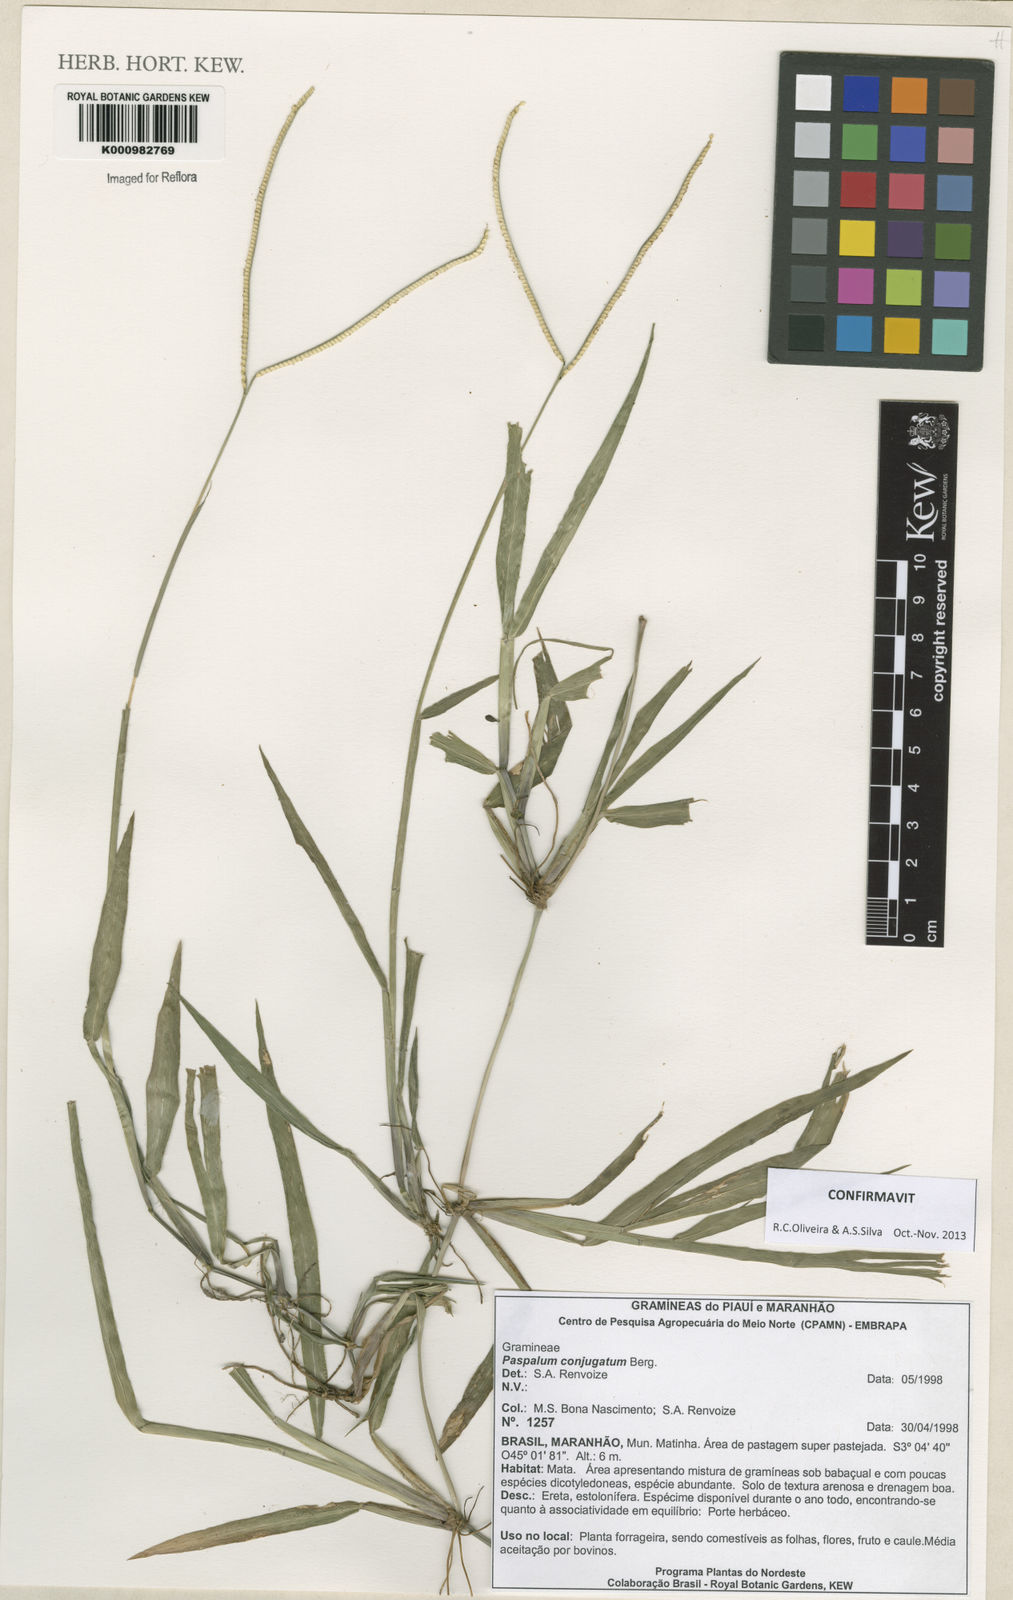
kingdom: Plantae
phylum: Tracheophyta
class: Liliopsida
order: Poales
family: Poaceae
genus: Paspalum
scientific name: Paspalum conjugatum
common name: Hilograss
